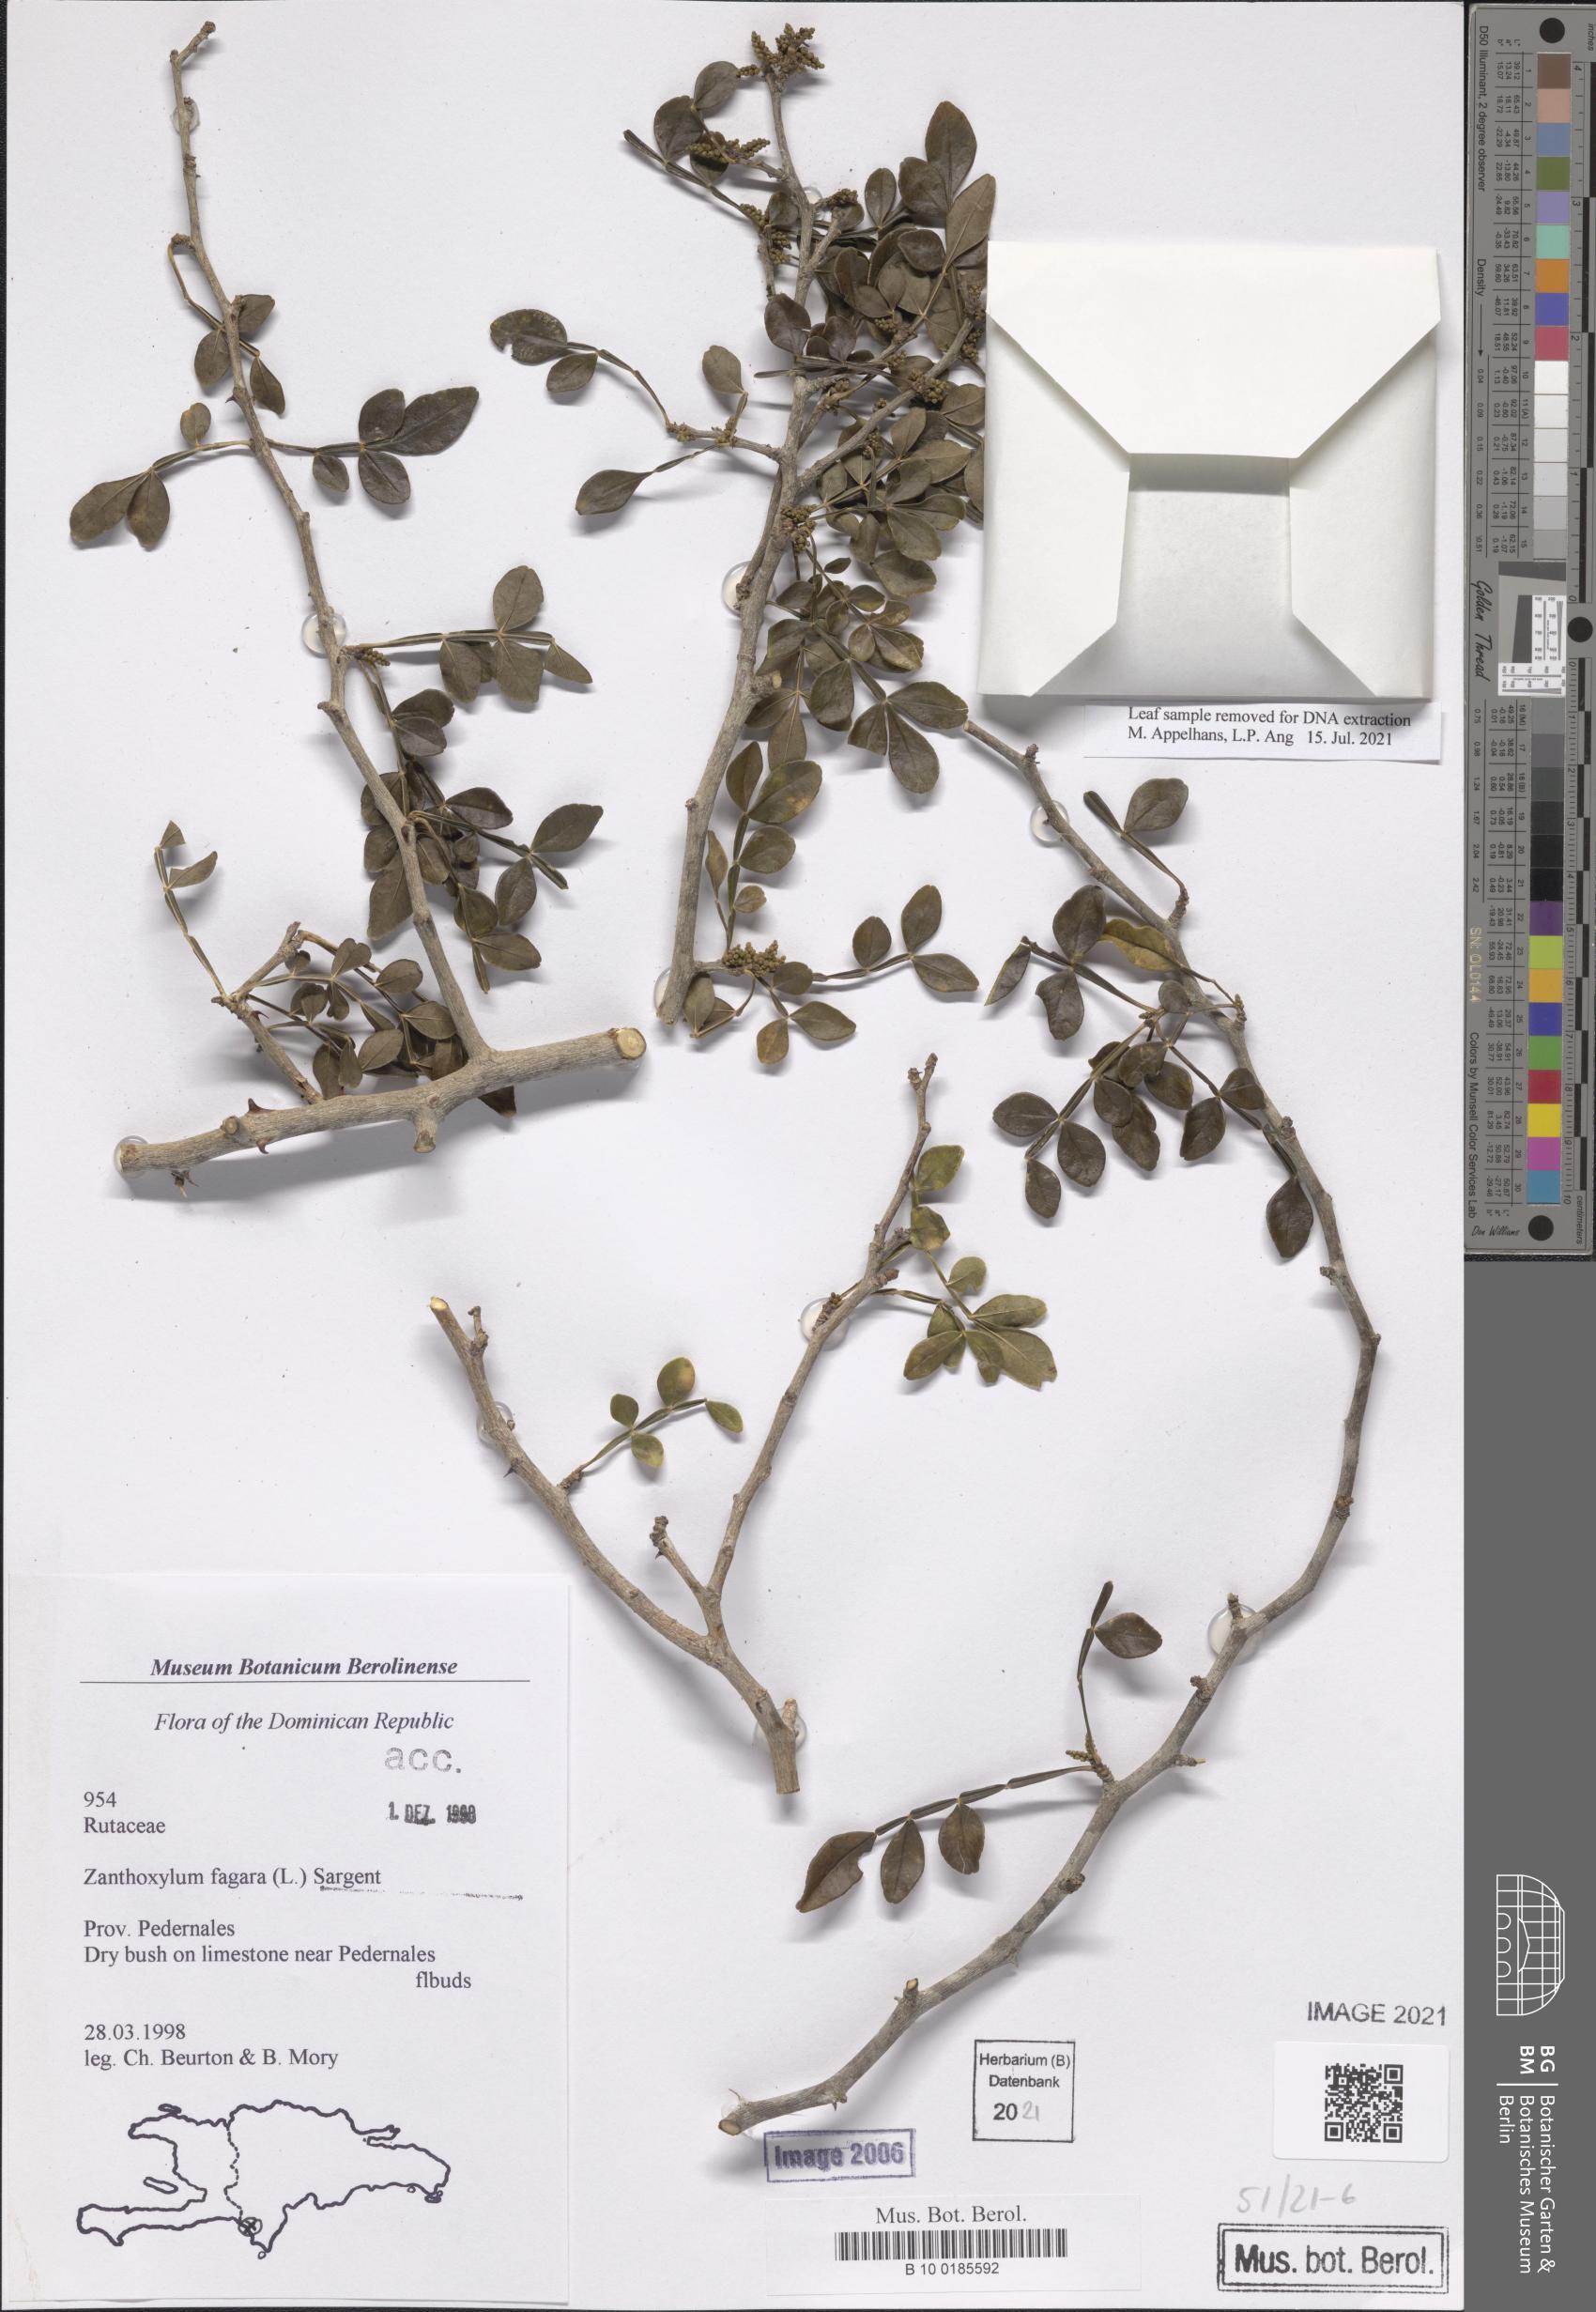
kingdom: Plantae
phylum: Tracheophyta
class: Magnoliopsida
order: Sapindales
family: Rutaceae
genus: Zanthoxylum
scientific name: Zanthoxylum fagara
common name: Lime prickly-ash
